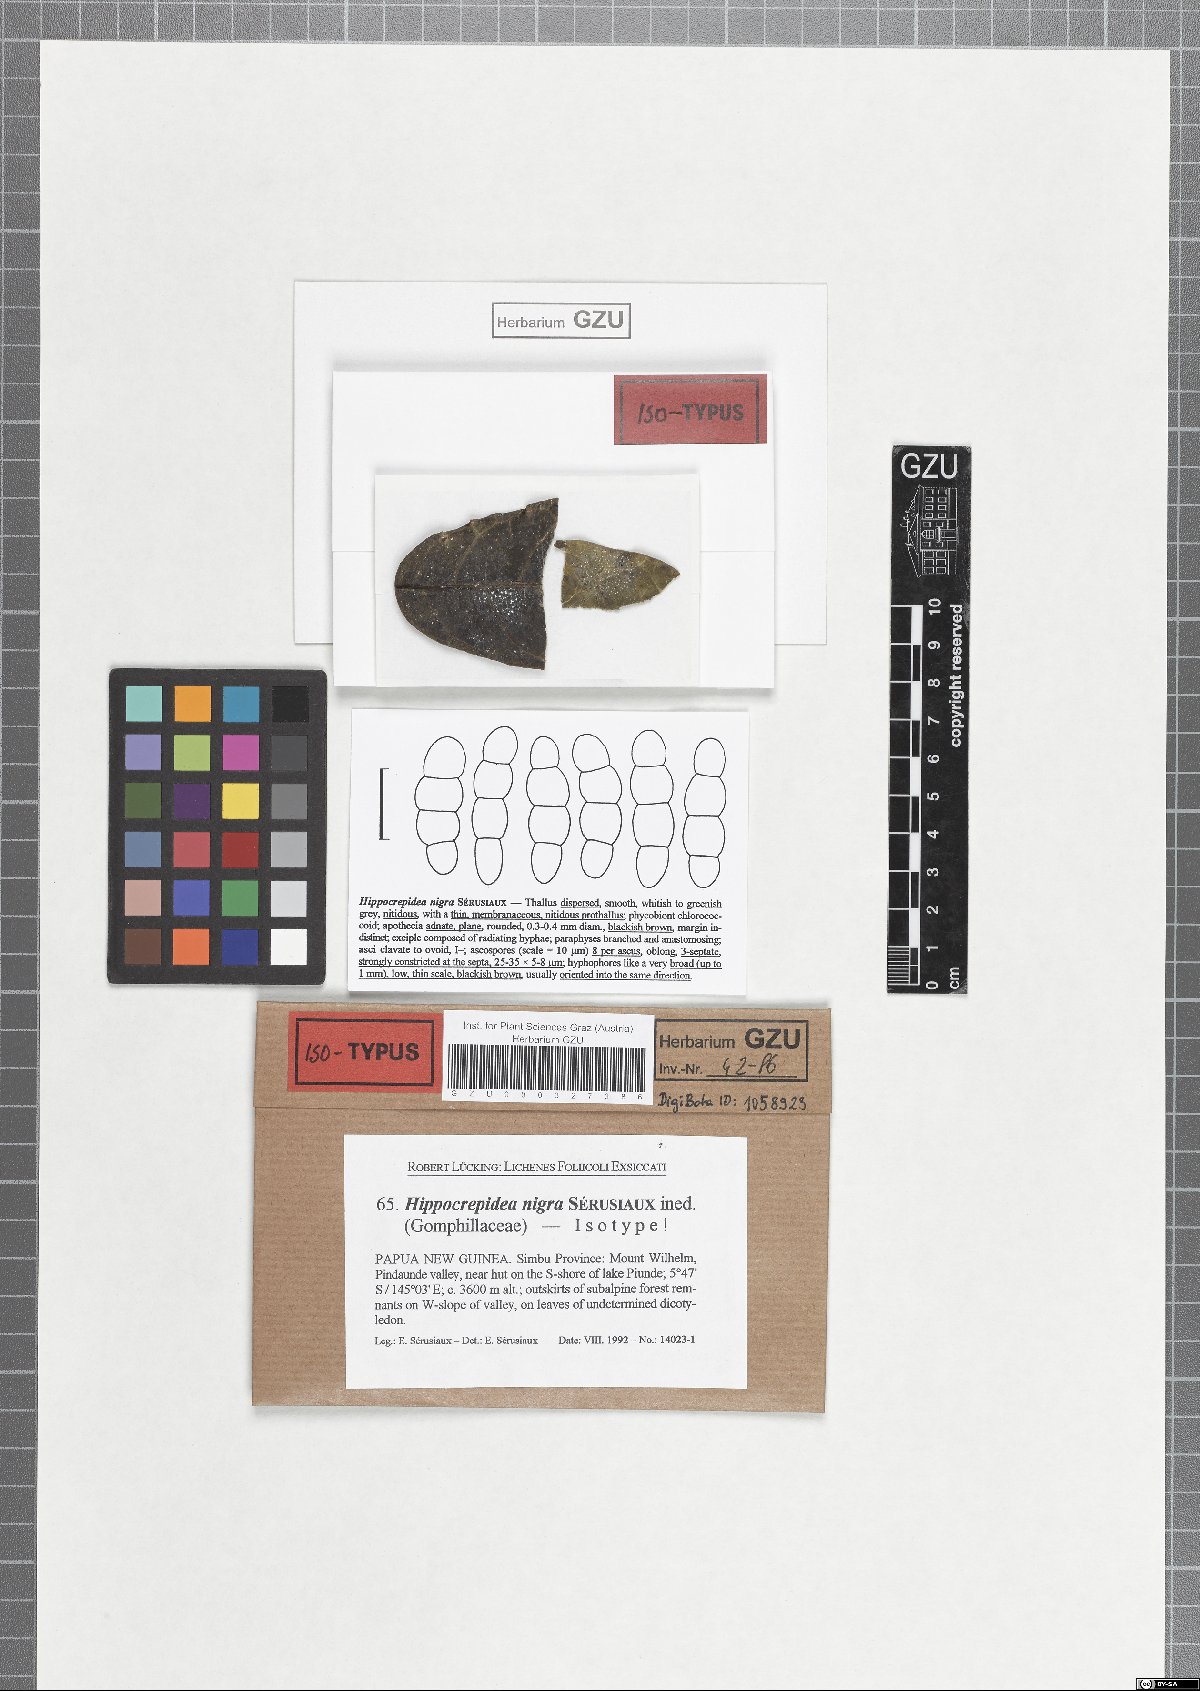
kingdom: Fungi
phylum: Ascomycota
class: Lecanoromycetes
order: Ostropales
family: Gomphillaceae
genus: Hippocrepidea
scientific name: Hippocrepidea nigra
